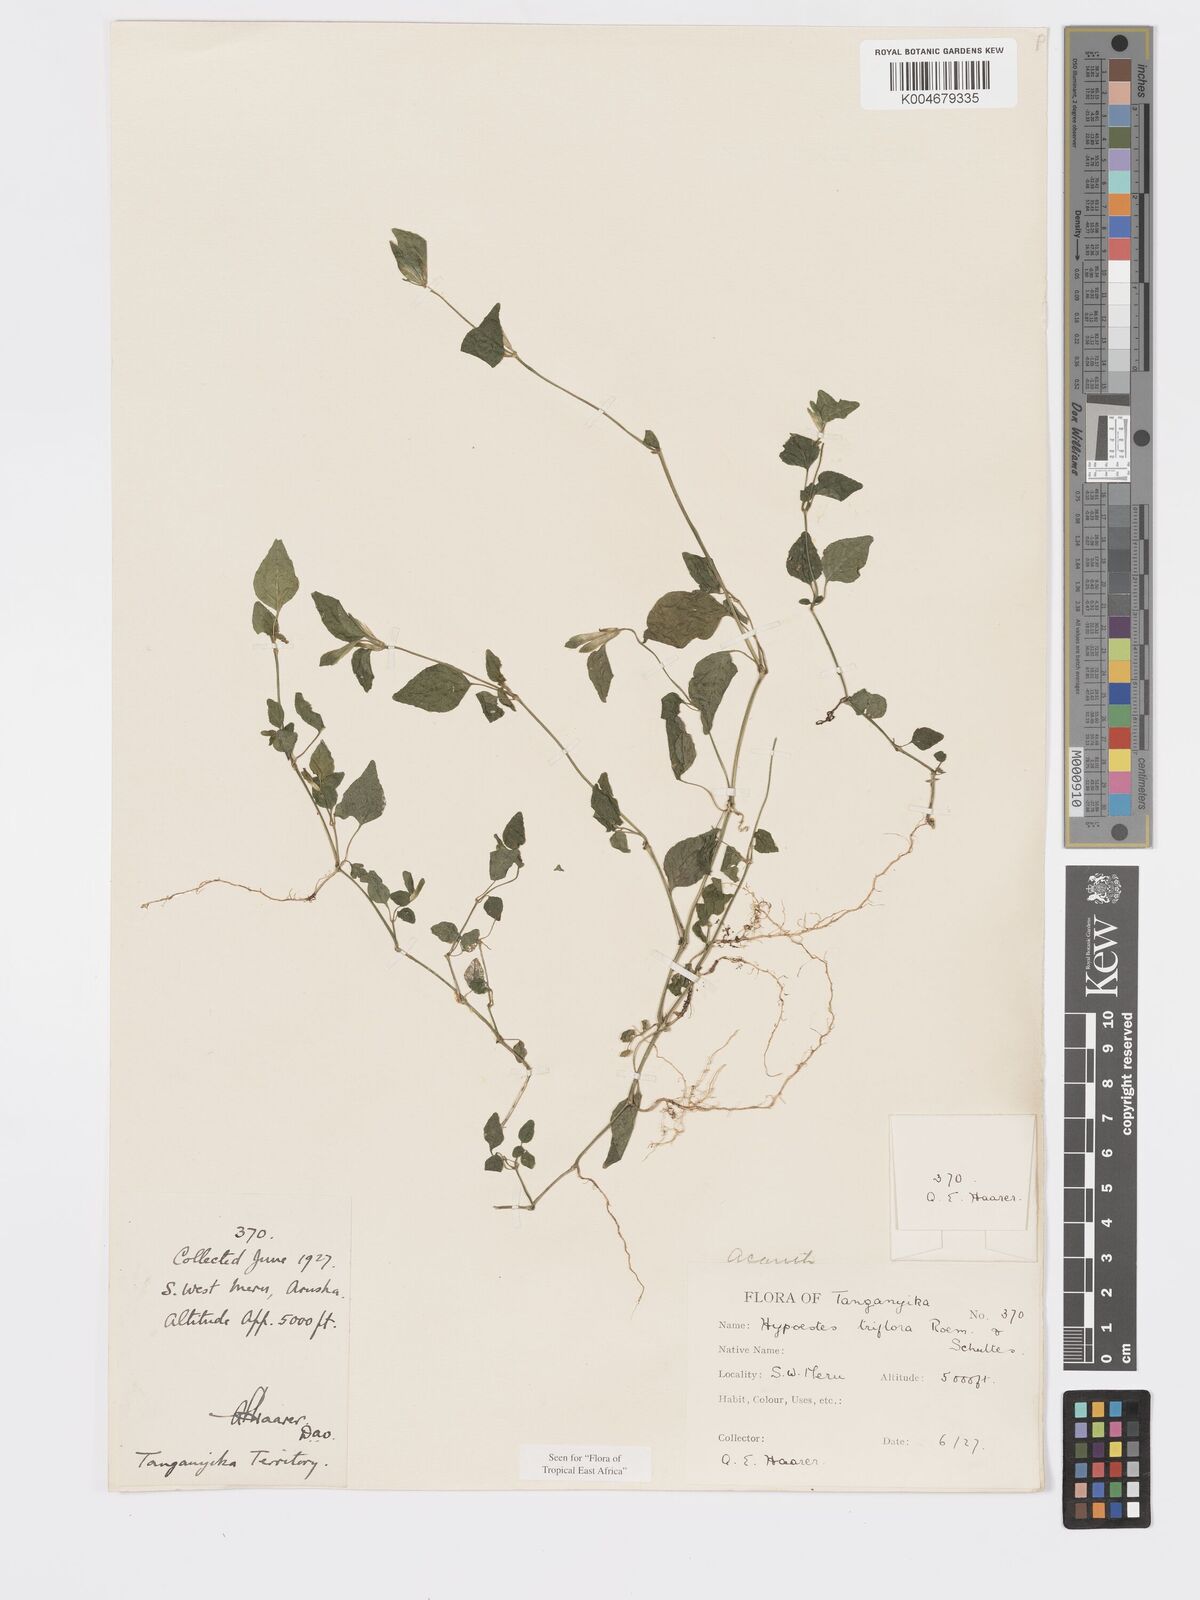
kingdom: Plantae
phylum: Tracheophyta
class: Magnoliopsida
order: Lamiales
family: Acanthaceae
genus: Hypoestes
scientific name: Hypoestes triflora
